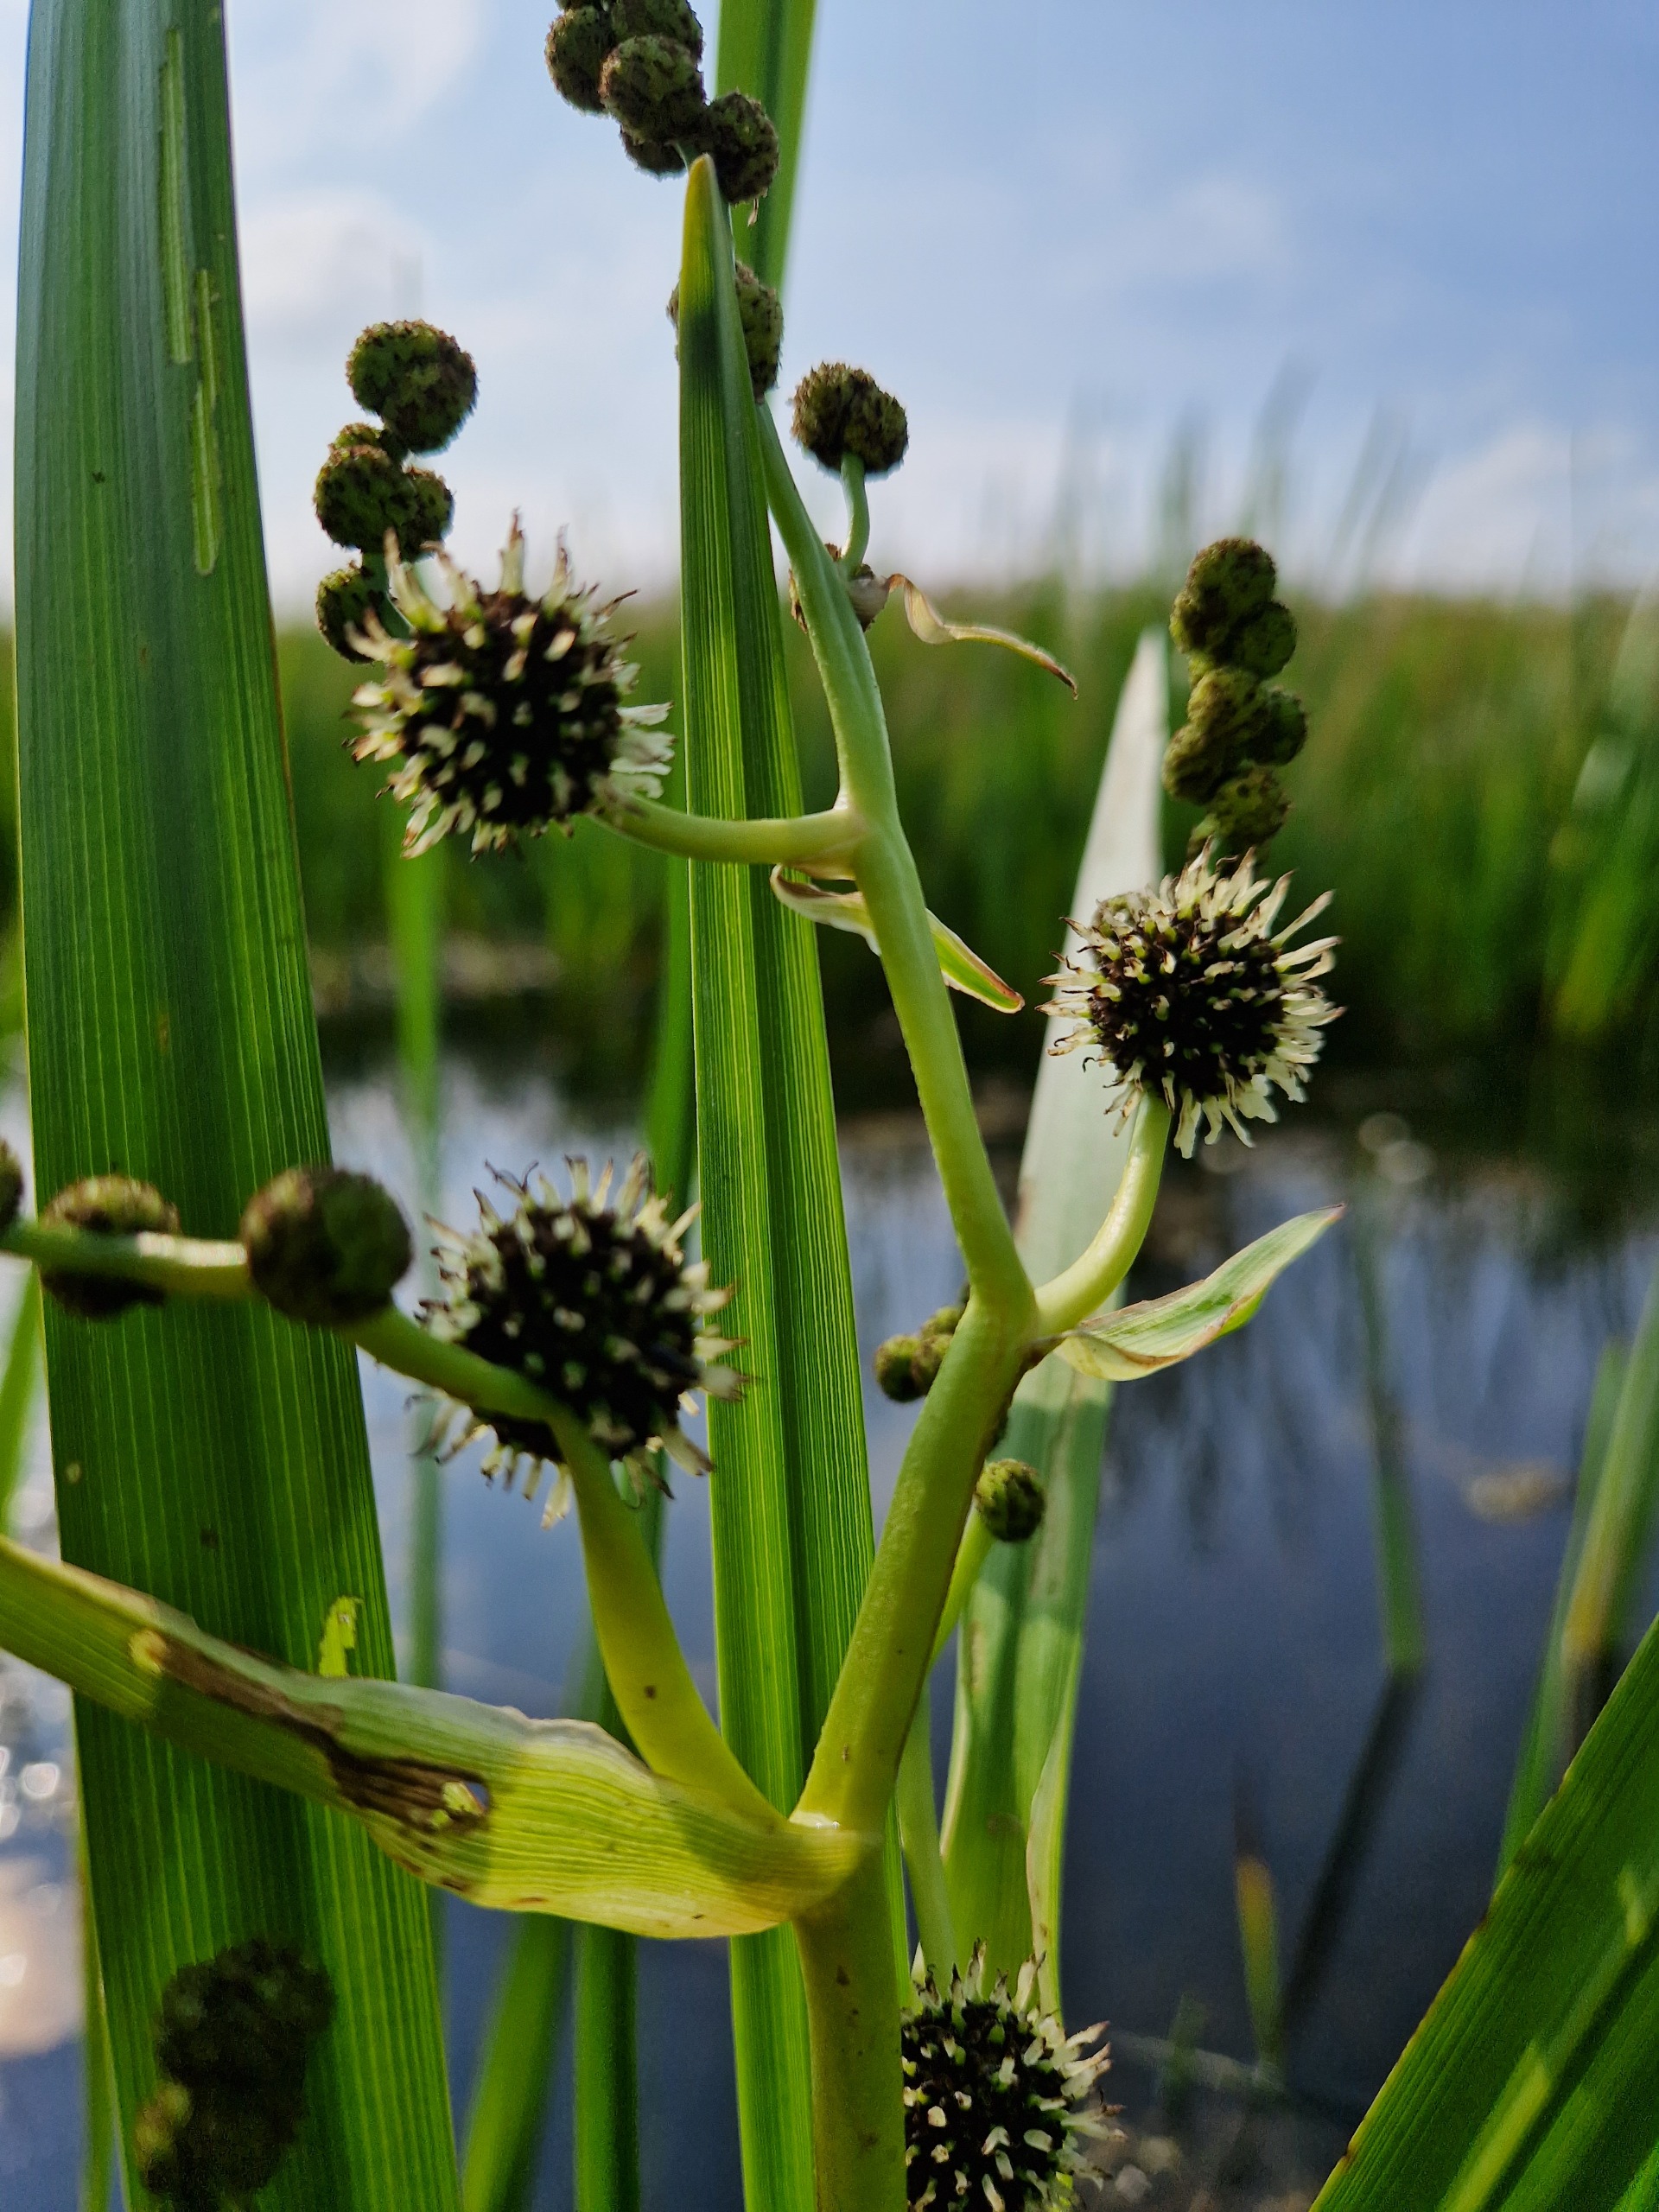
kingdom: Plantae
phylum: Tracheophyta
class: Liliopsida
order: Poales
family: Typhaceae
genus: Sparganium
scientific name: Sparganium erectum
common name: Grenet pindsvineknop
